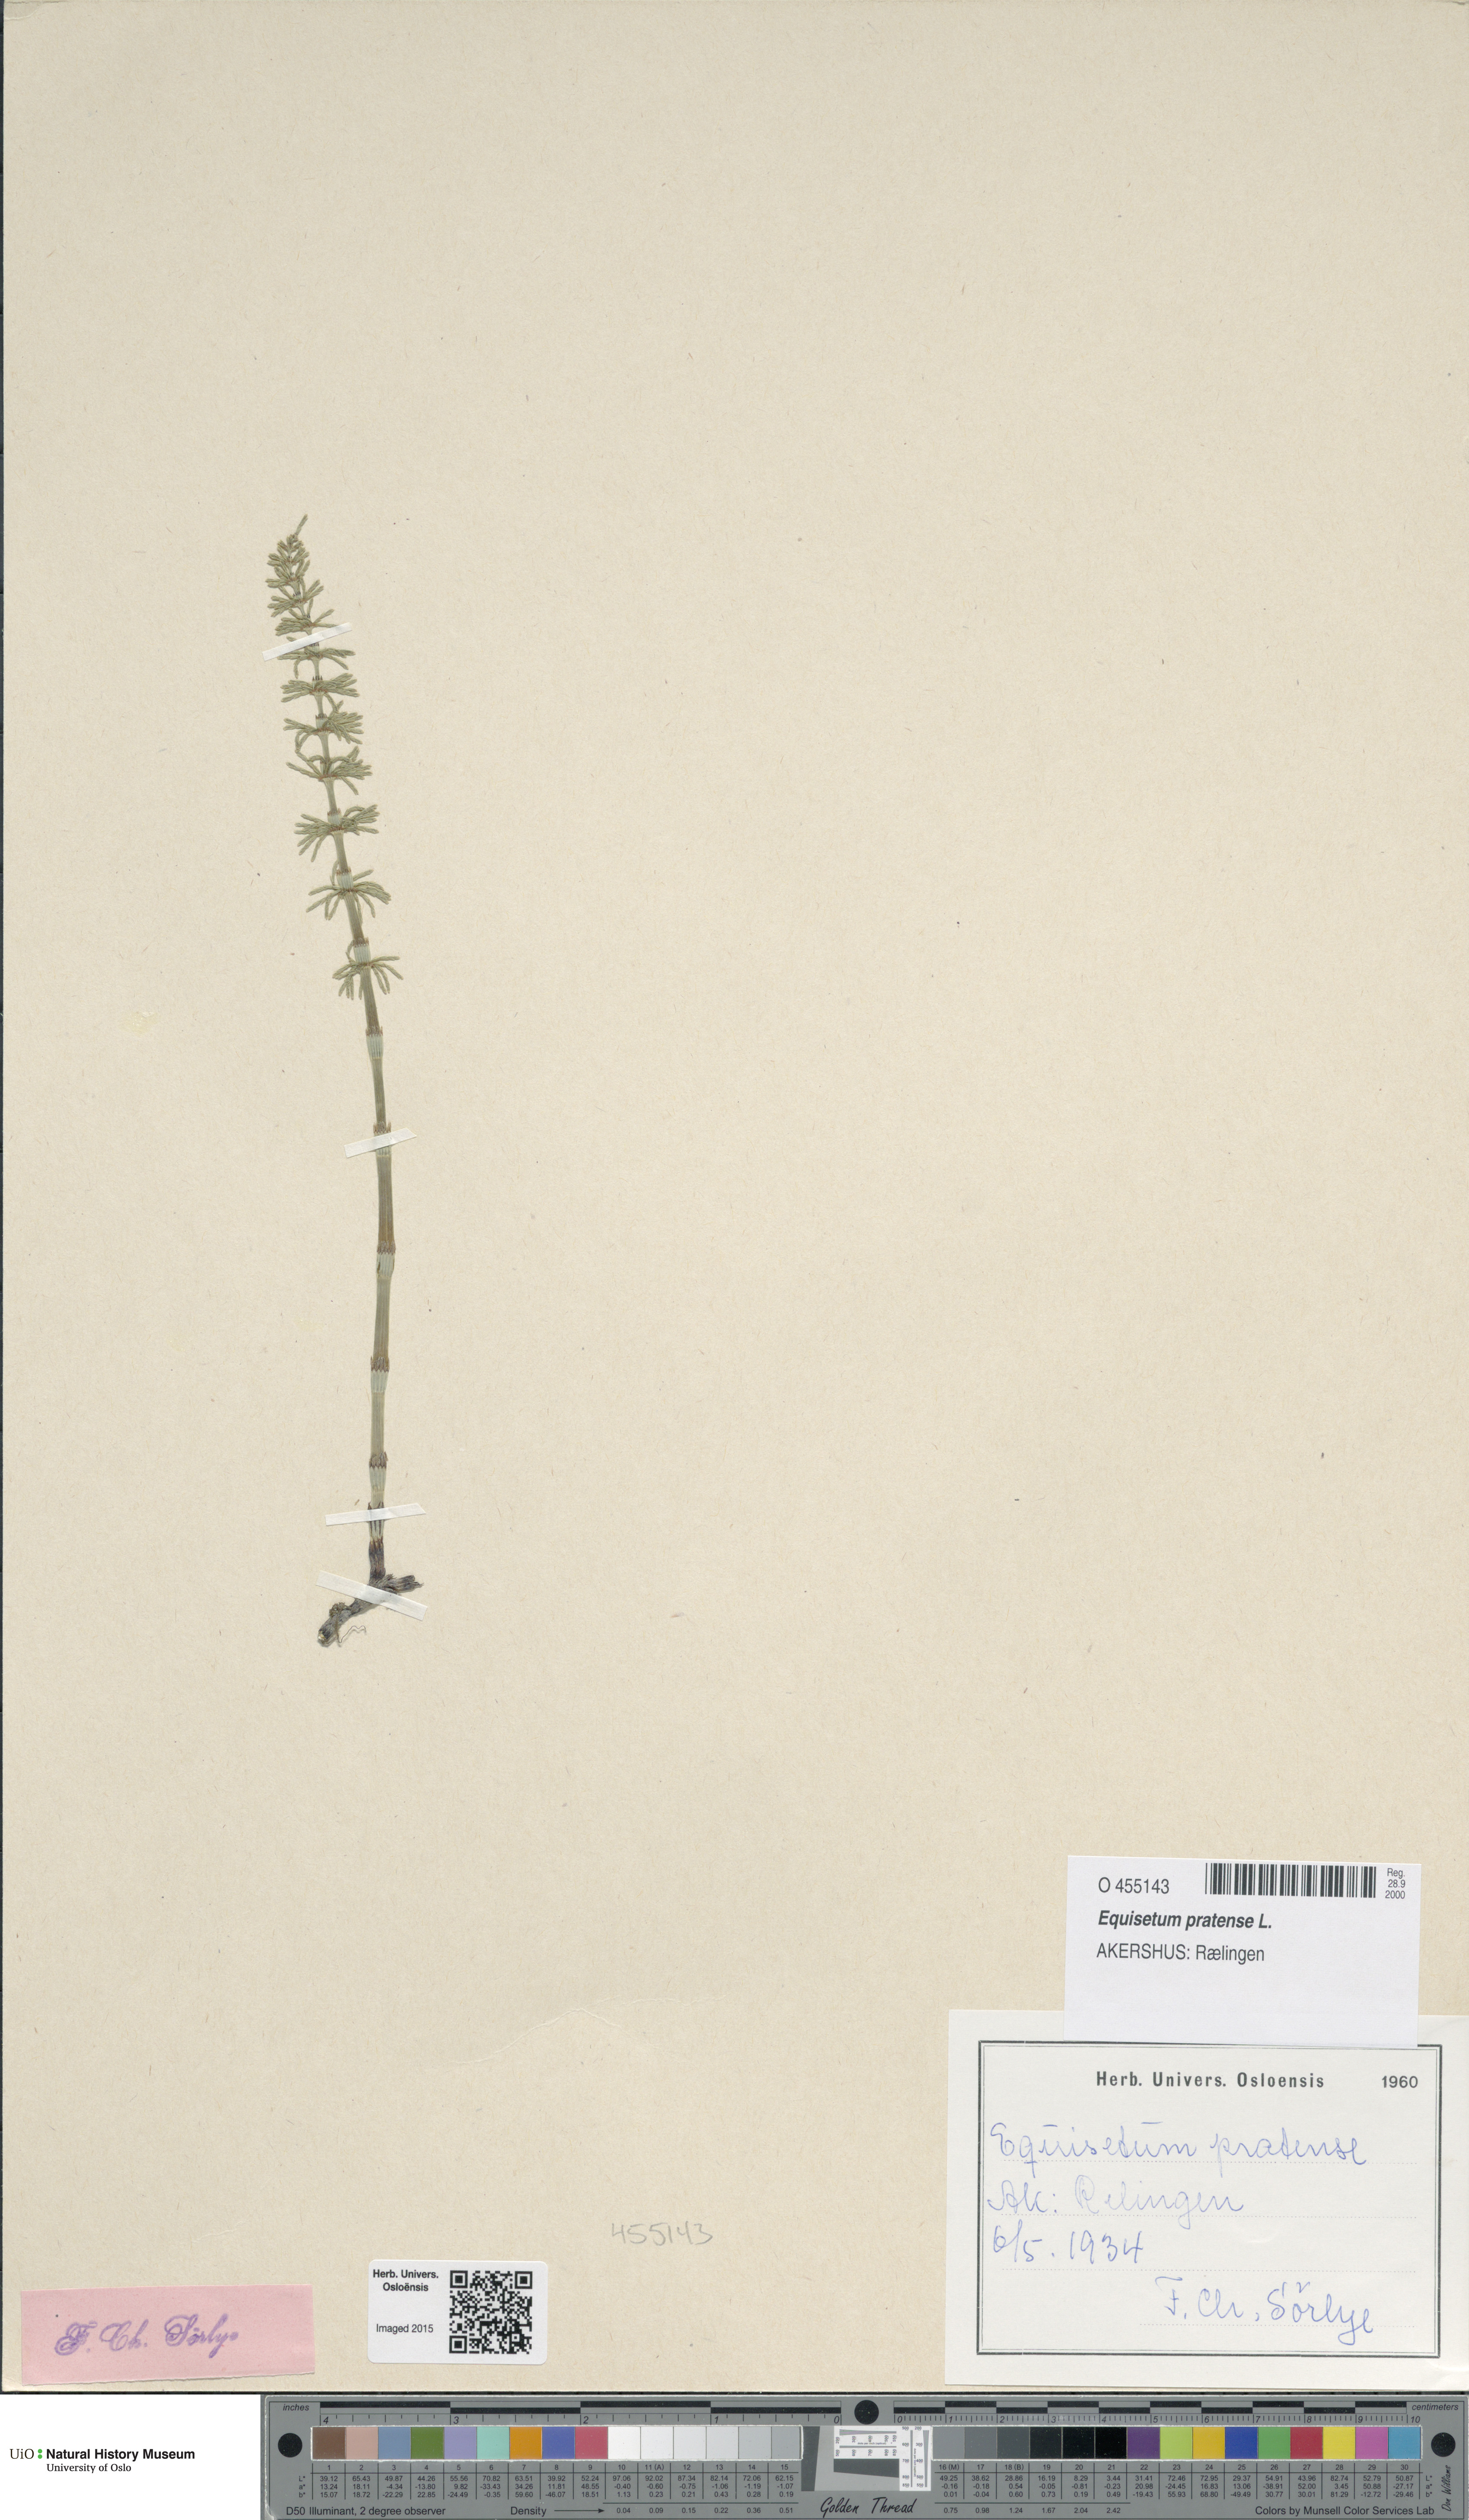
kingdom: Plantae
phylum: Tracheophyta
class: Polypodiopsida
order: Equisetales
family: Equisetaceae
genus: Equisetum
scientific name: Equisetum pratense
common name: Meadow horsetail
